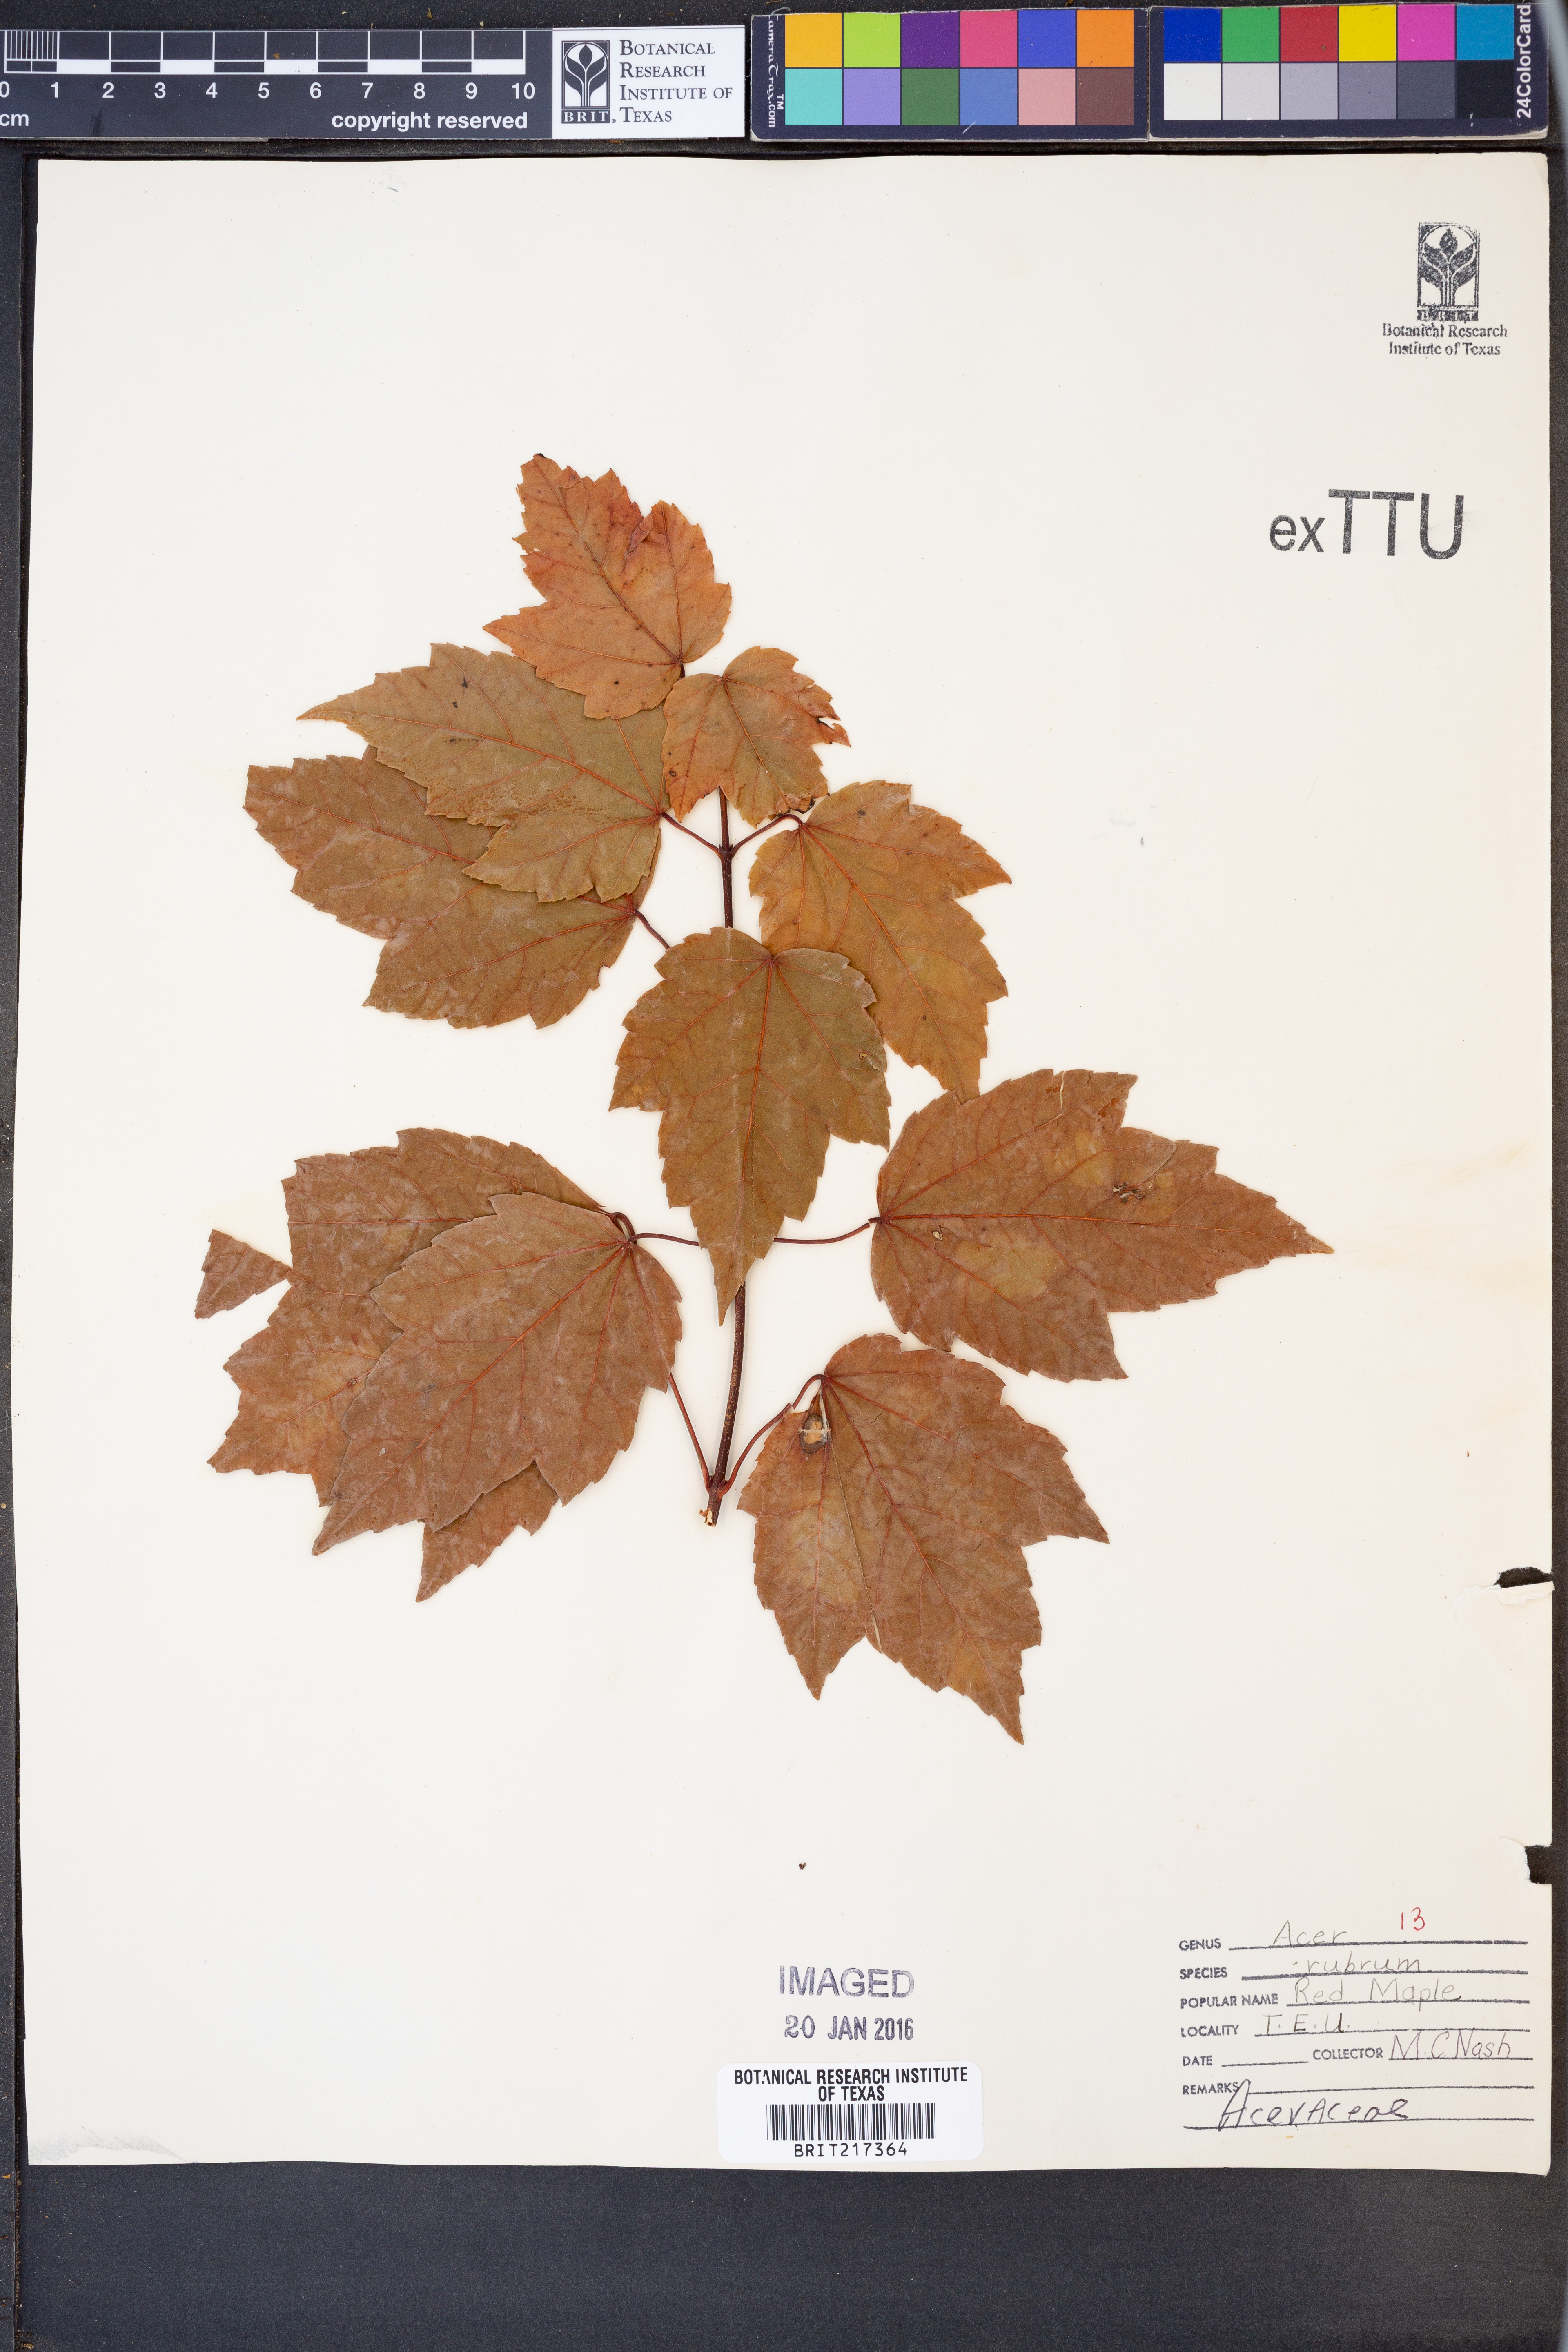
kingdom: Plantae
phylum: Tracheophyta
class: Magnoliopsida
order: Sapindales
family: Sapindaceae
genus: Acer
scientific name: Acer rubrum
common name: Red maple
